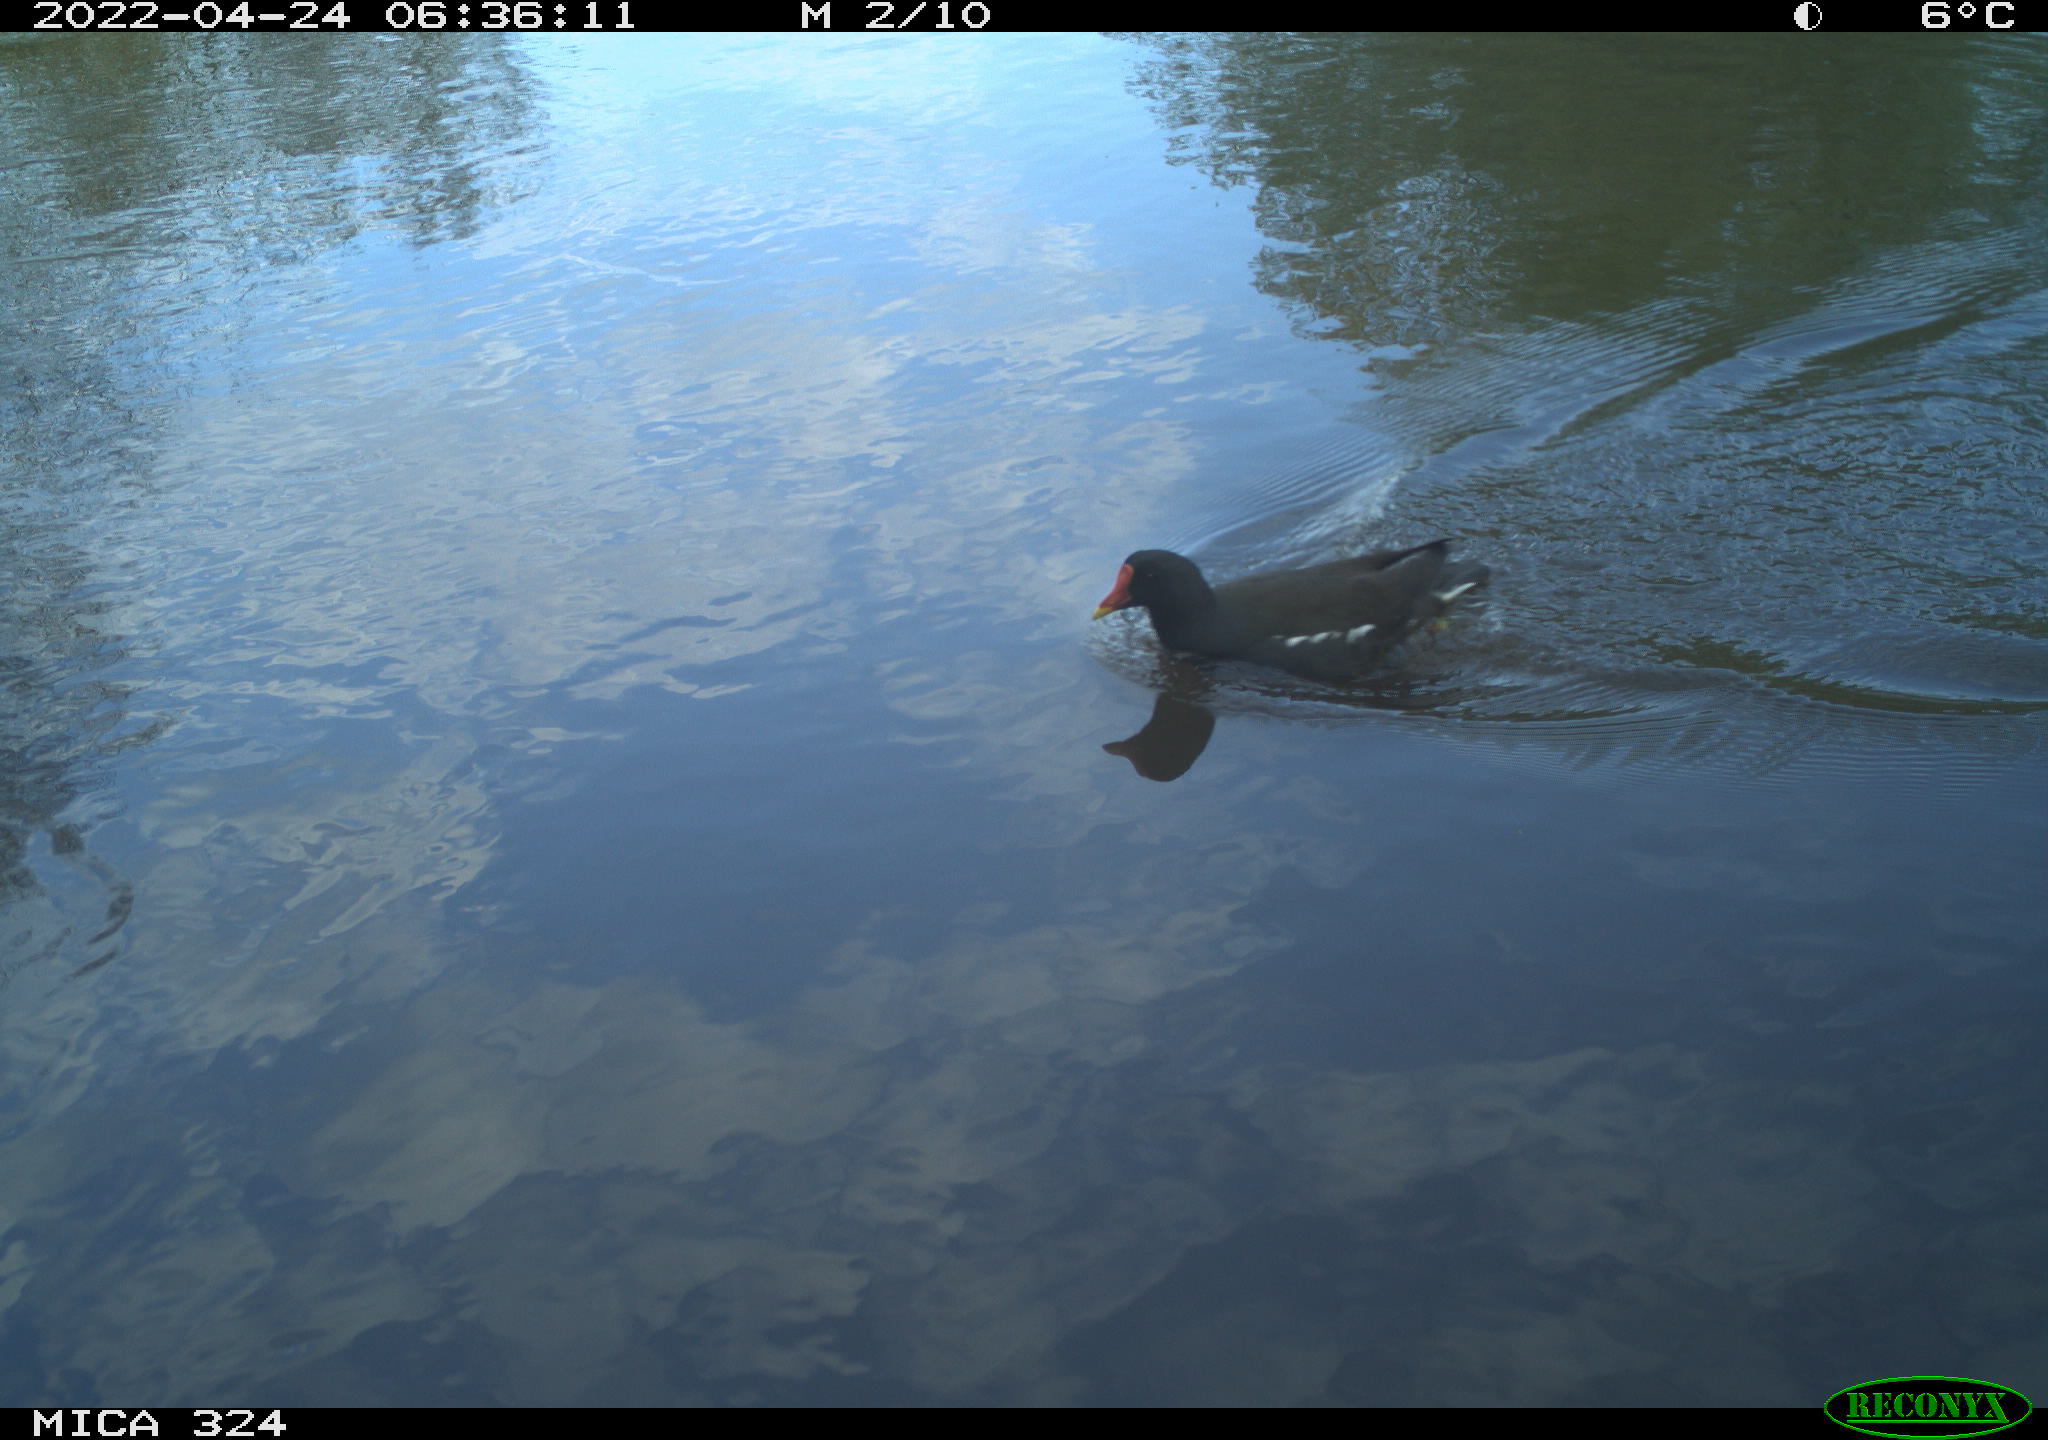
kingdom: Animalia
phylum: Chordata
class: Aves
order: Gruiformes
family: Rallidae
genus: Gallinula
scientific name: Gallinula chloropus
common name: Common moorhen
